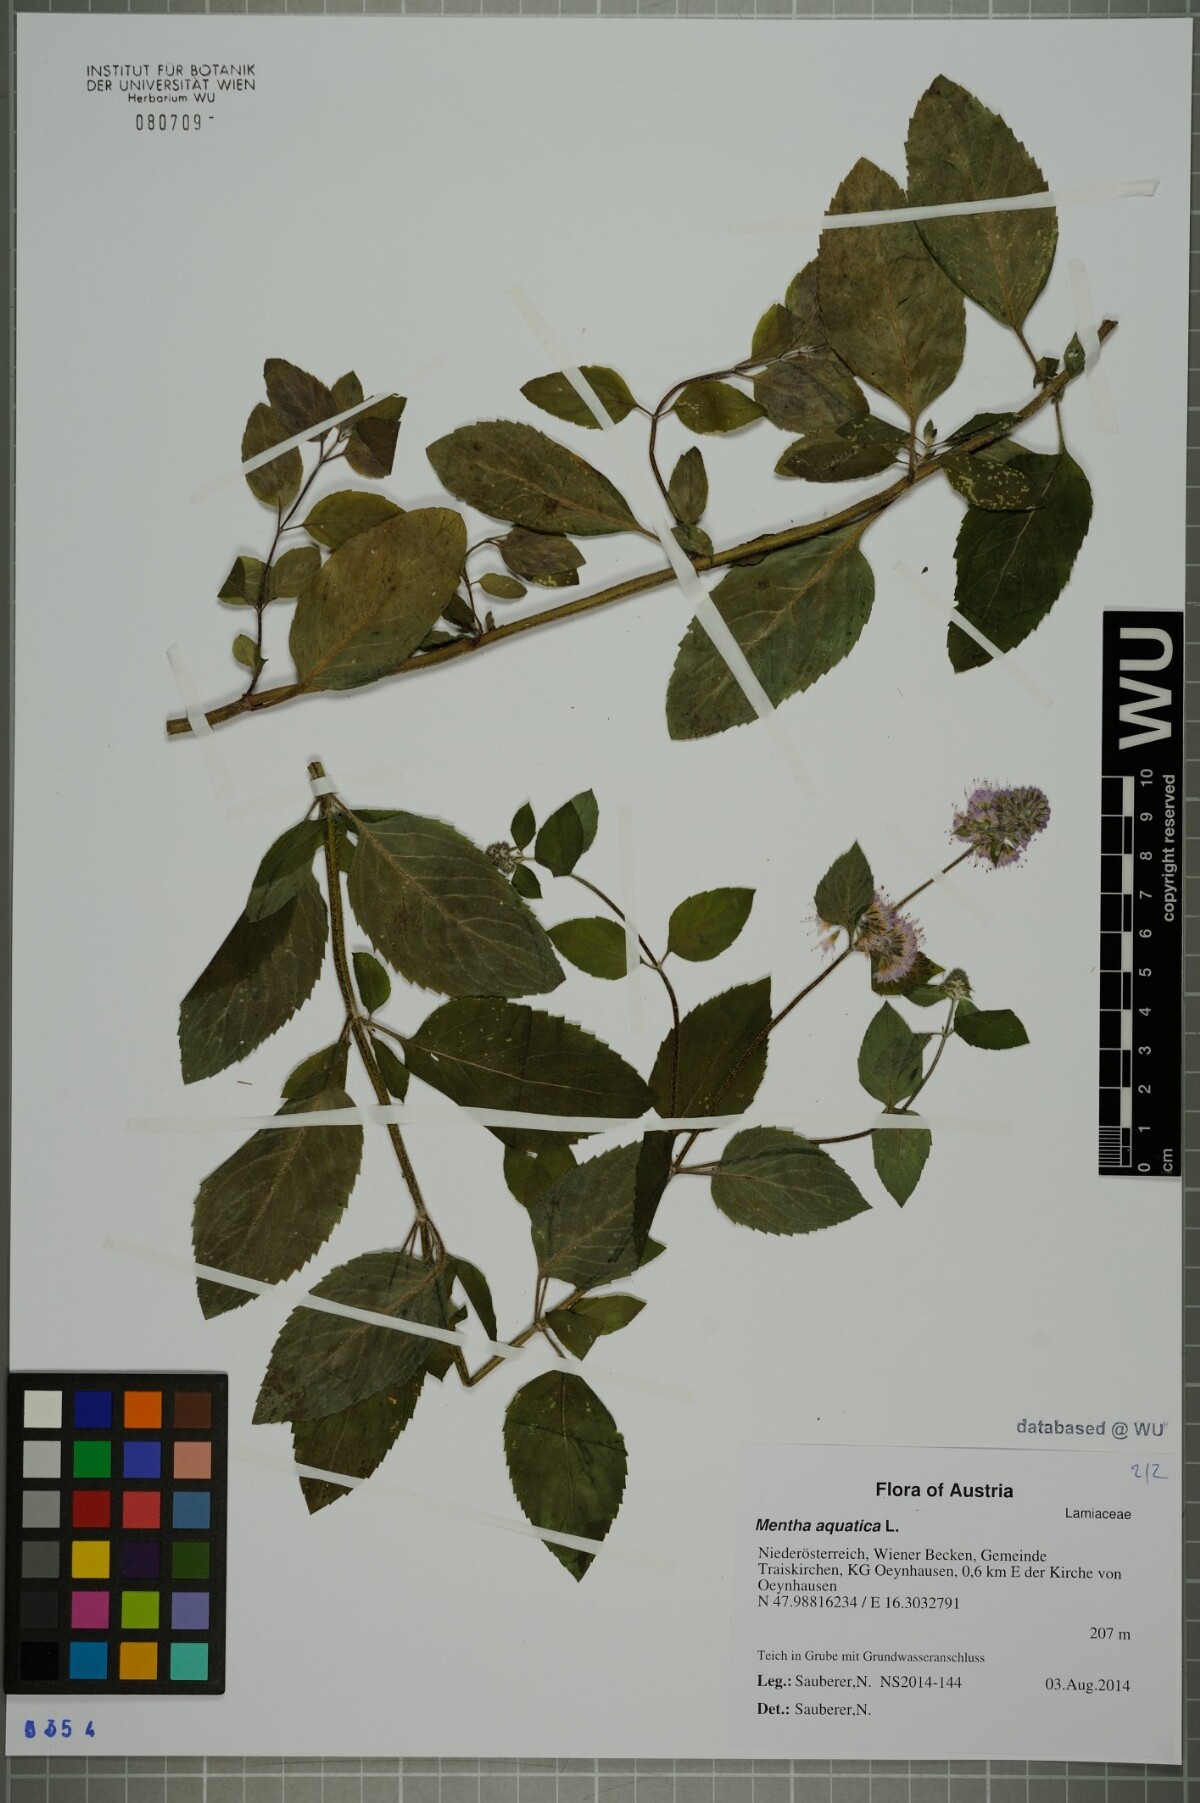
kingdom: Plantae
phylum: Tracheophyta
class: Magnoliopsida
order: Lamiales
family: Lamiaceae
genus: Mentha
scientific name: Mentha aquatica
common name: Water mint
